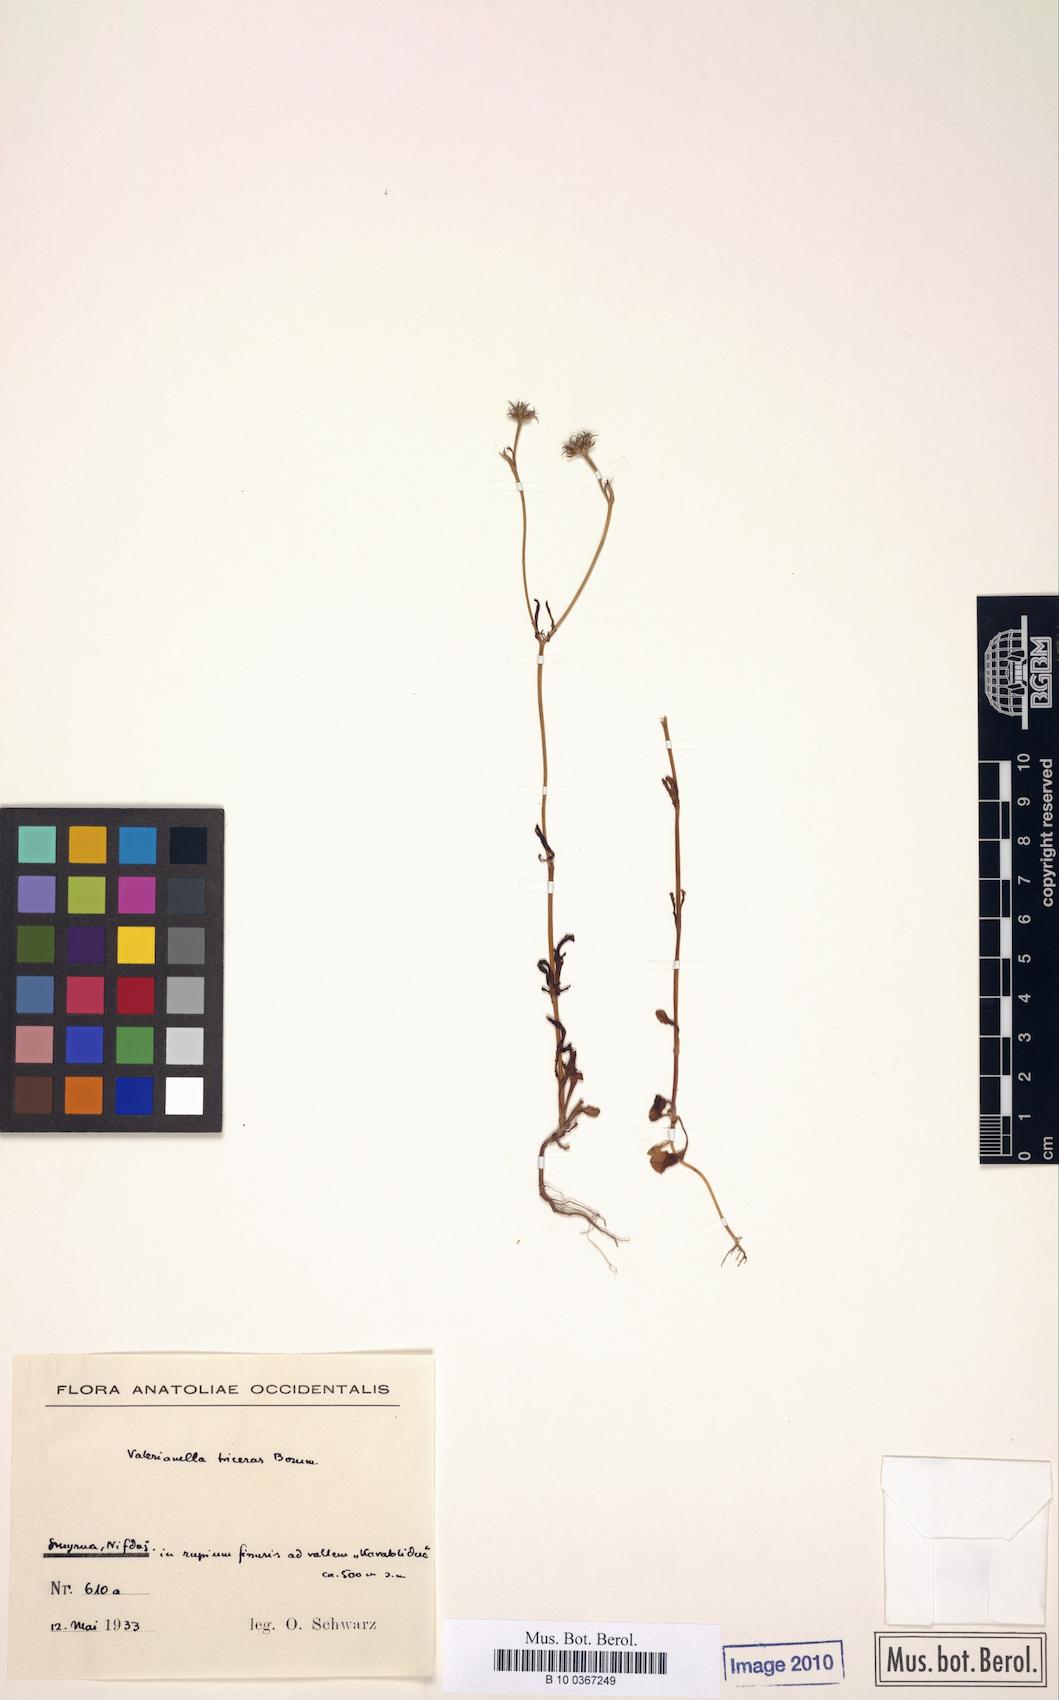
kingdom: Plantae
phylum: Tracheophyta
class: Magnoliopsida
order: Dipsacales
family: Caprifoliaceae
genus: Valerianella
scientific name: Valerianella triceras
